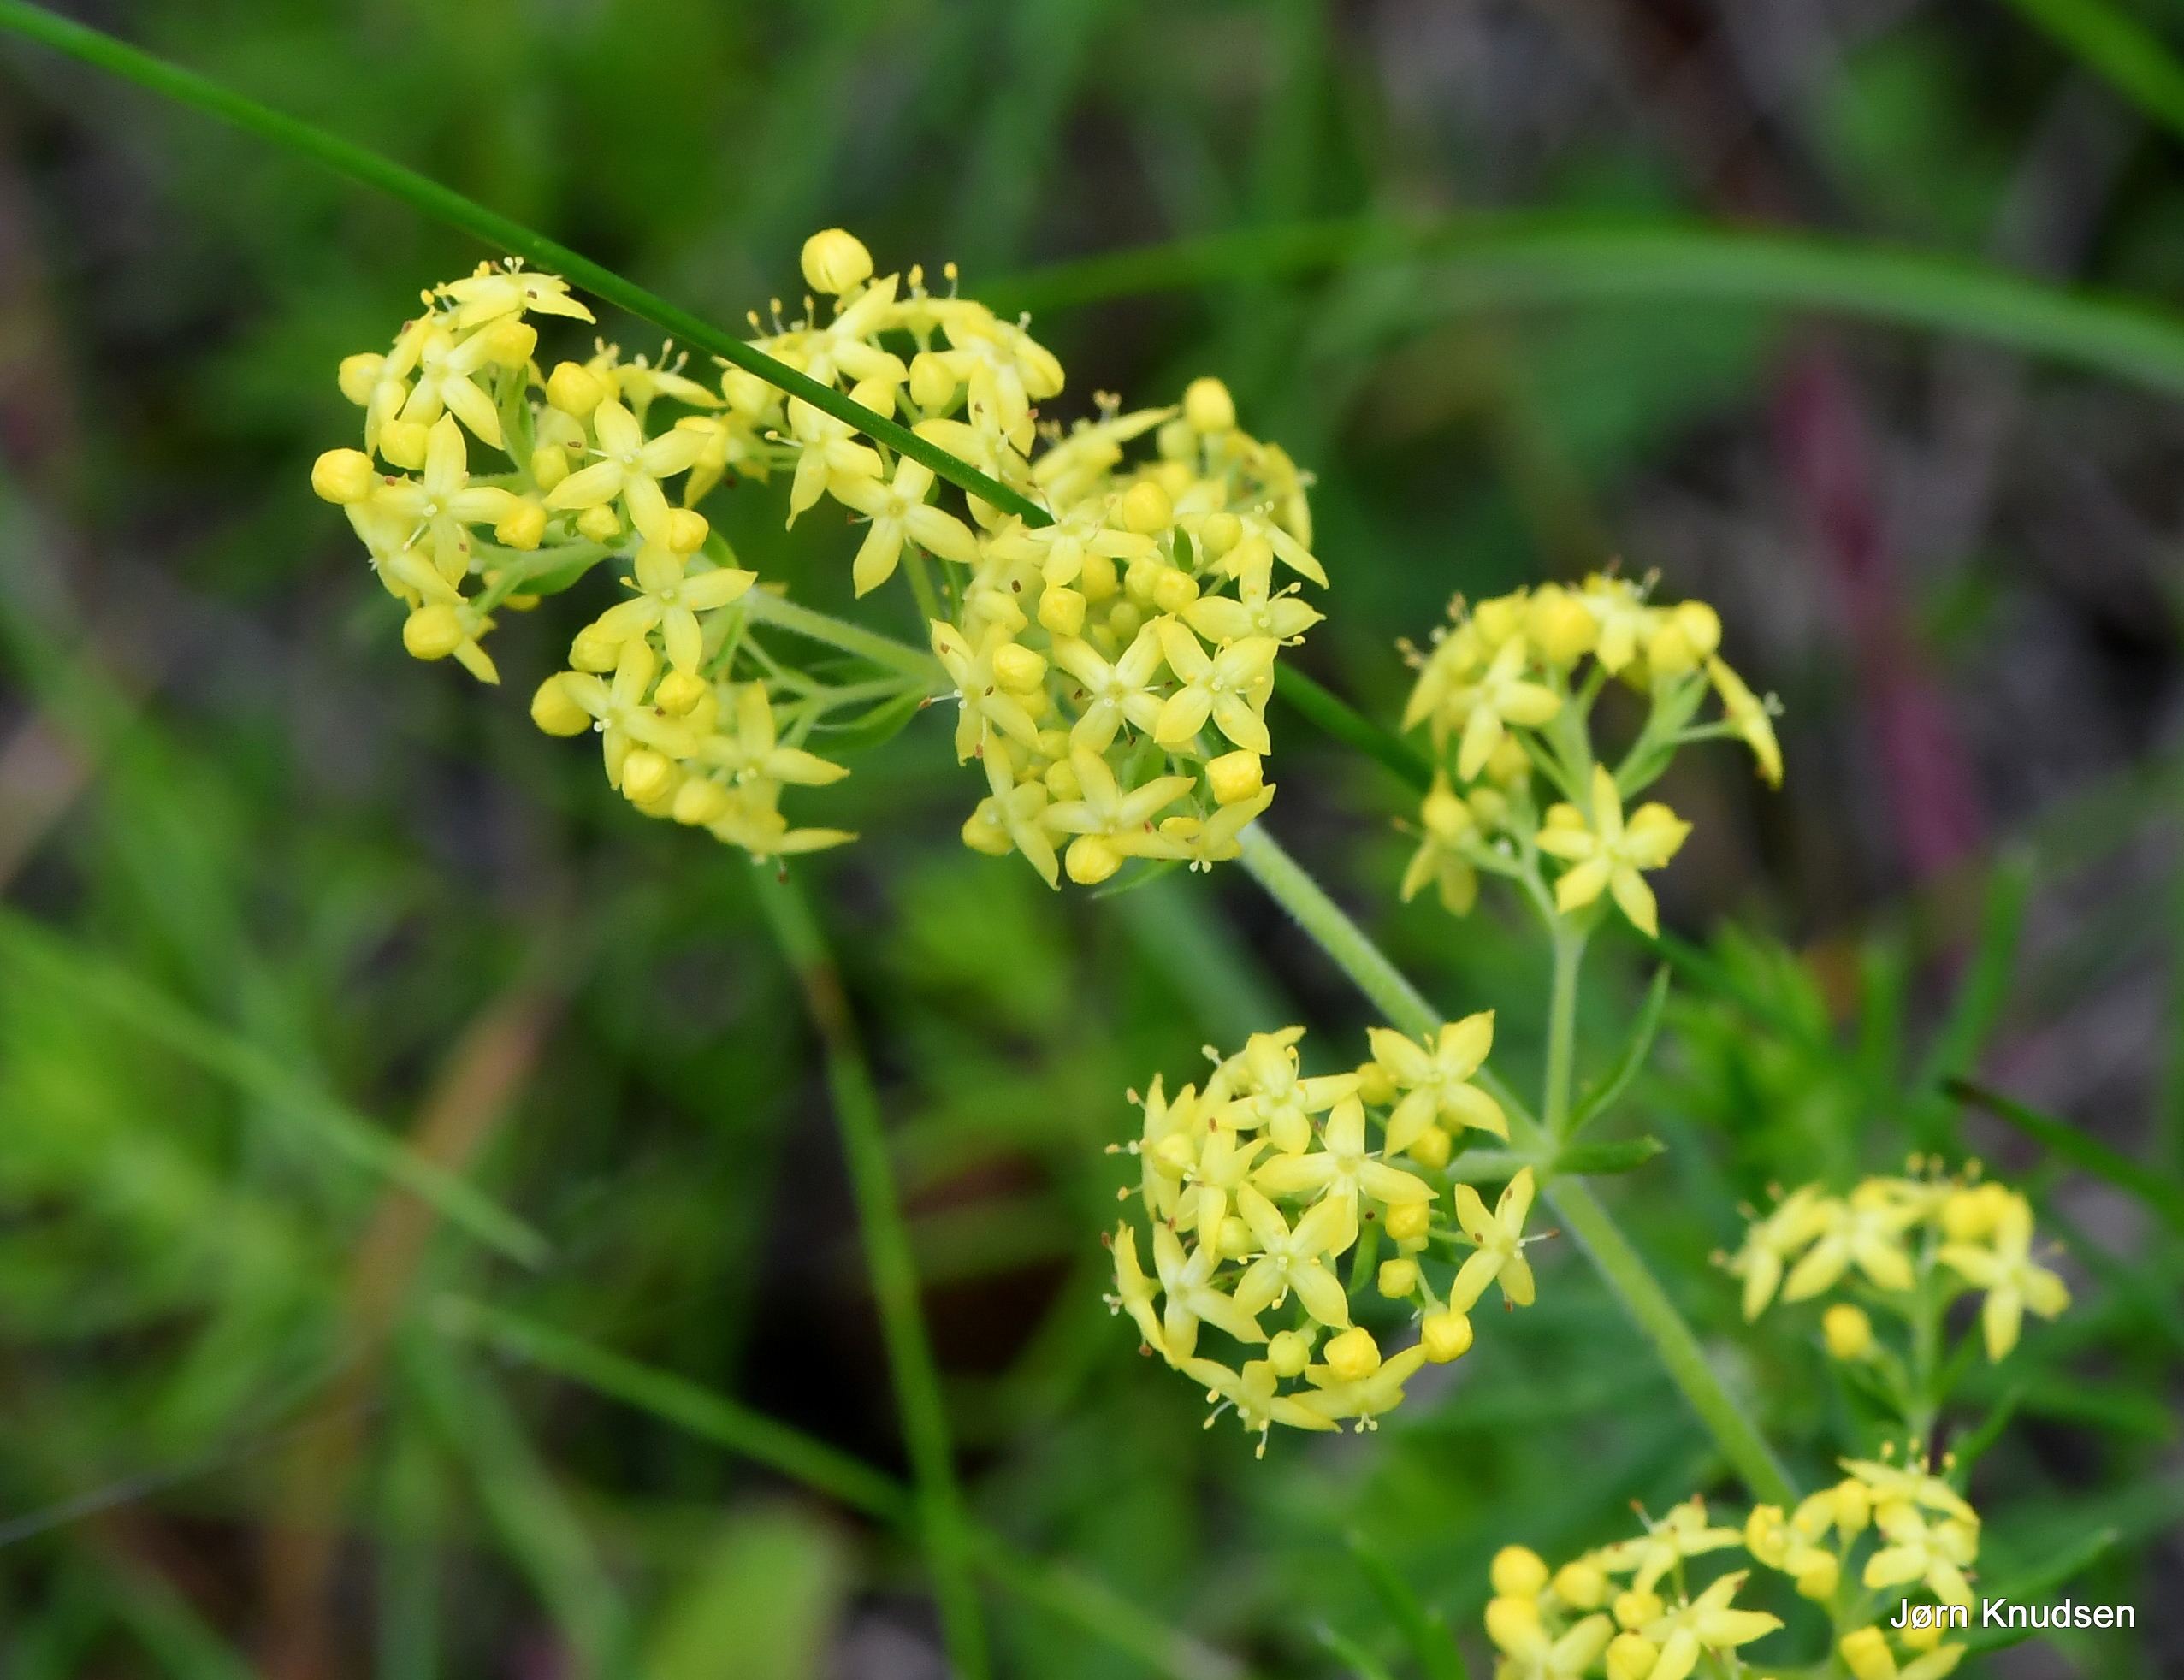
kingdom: Plantae
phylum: Tracheophyta
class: Magnoliopsida
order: Gentianales
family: Rubiaceae
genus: Galium
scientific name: Galium verum
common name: Gul snerre
